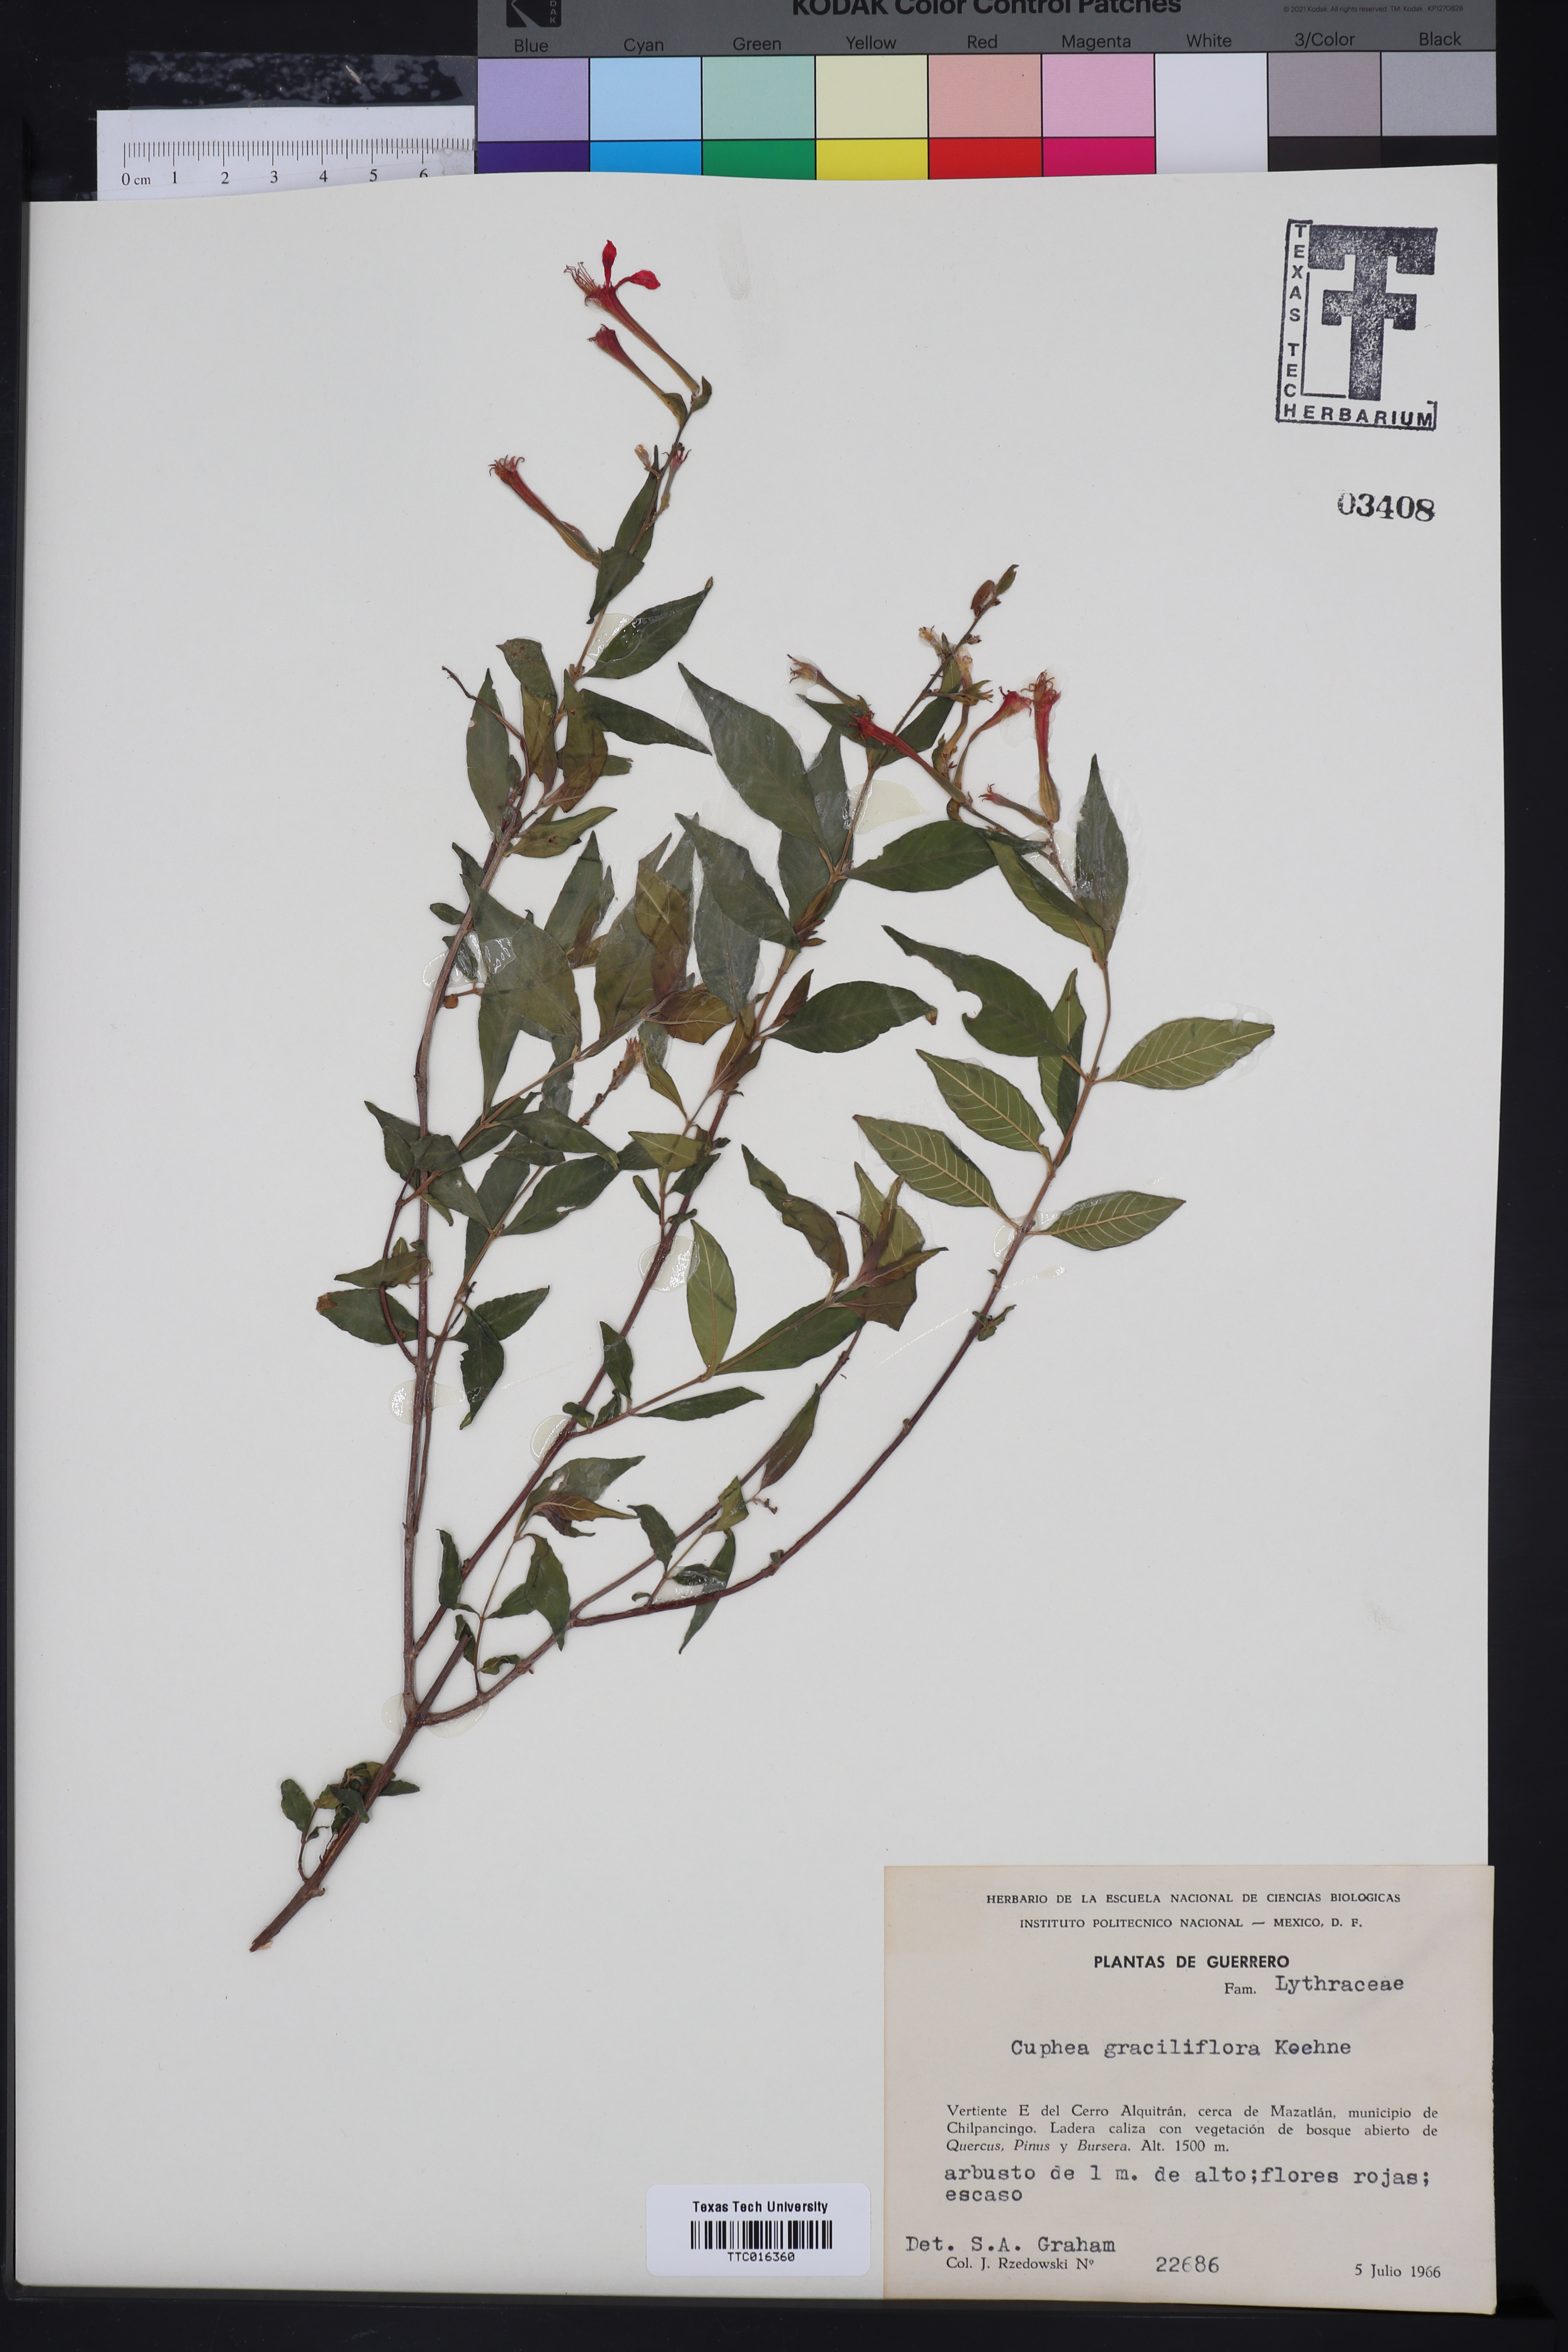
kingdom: Plantae
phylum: Tracheophyta
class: Magnoliopsida
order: Myrtales
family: Lythraceae
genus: Cuphea
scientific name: Cuphea graciliflora
